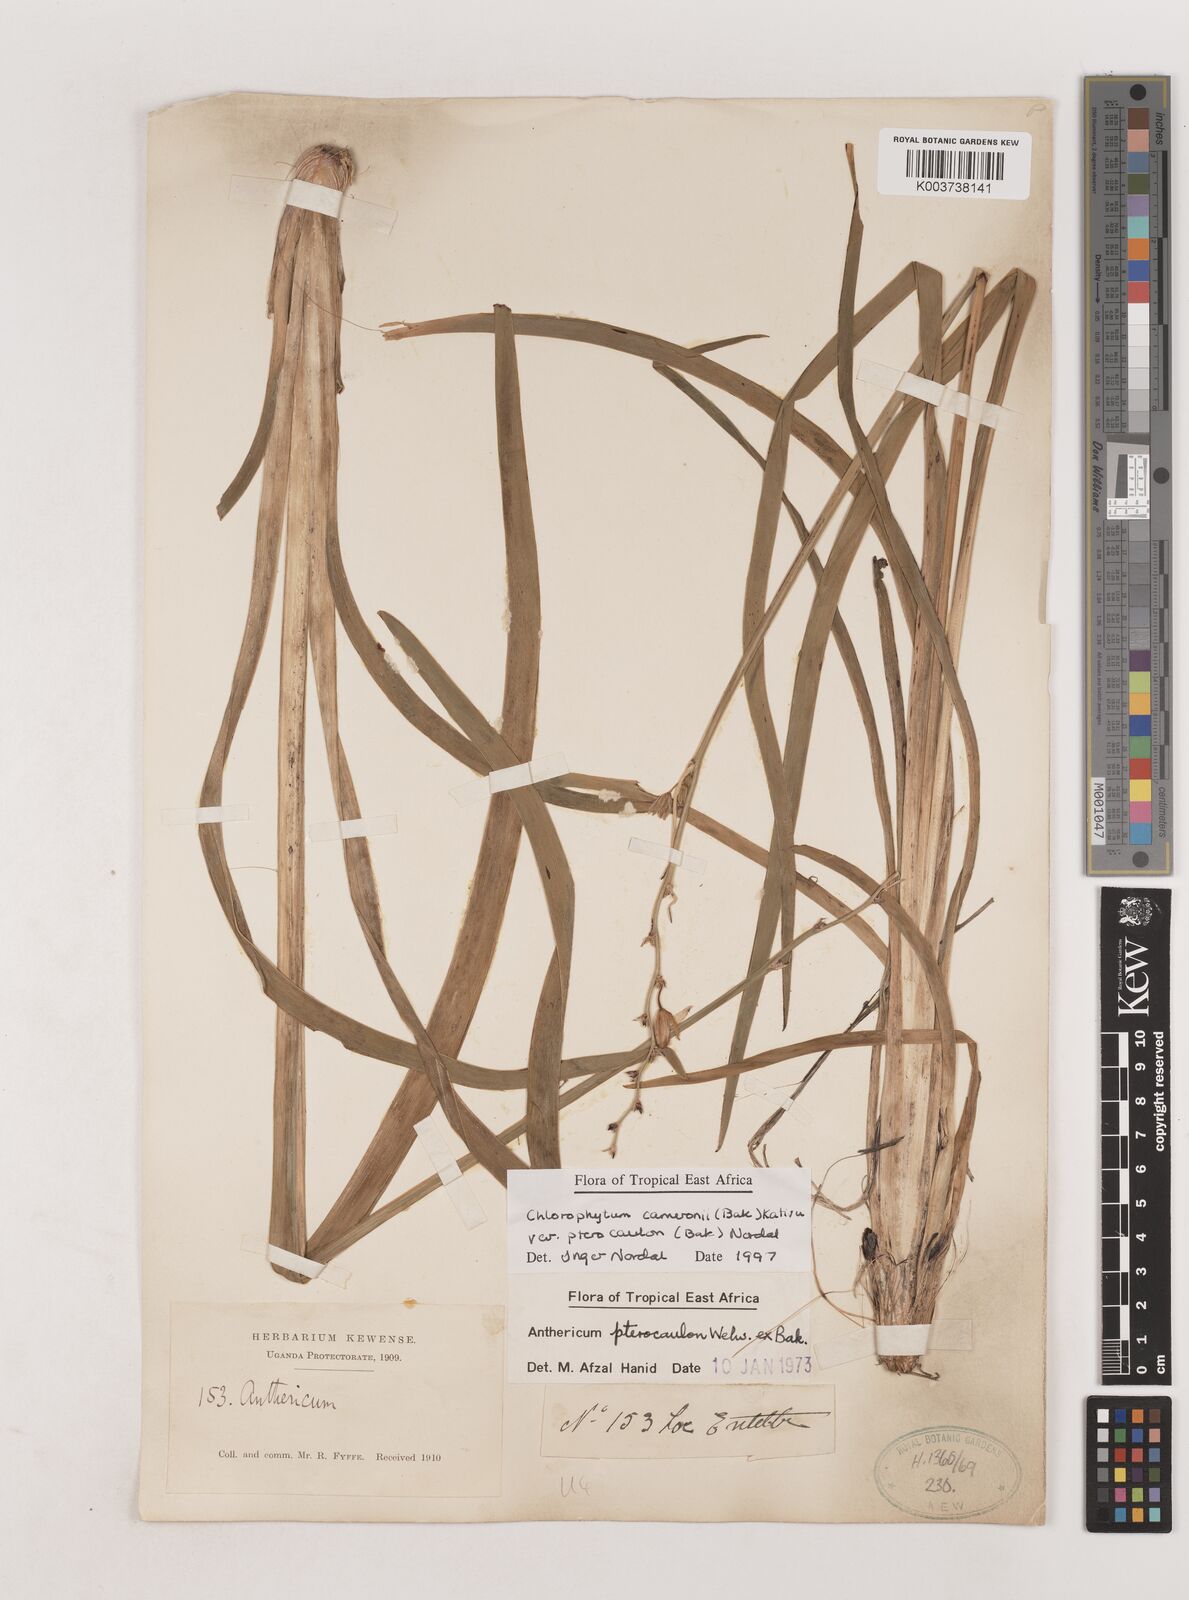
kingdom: Plantae
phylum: Tracheophyta
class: Liliopsida
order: Asparagales
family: Asparagaceae
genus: Chlorophytum
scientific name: Chlorophytum cameronii
